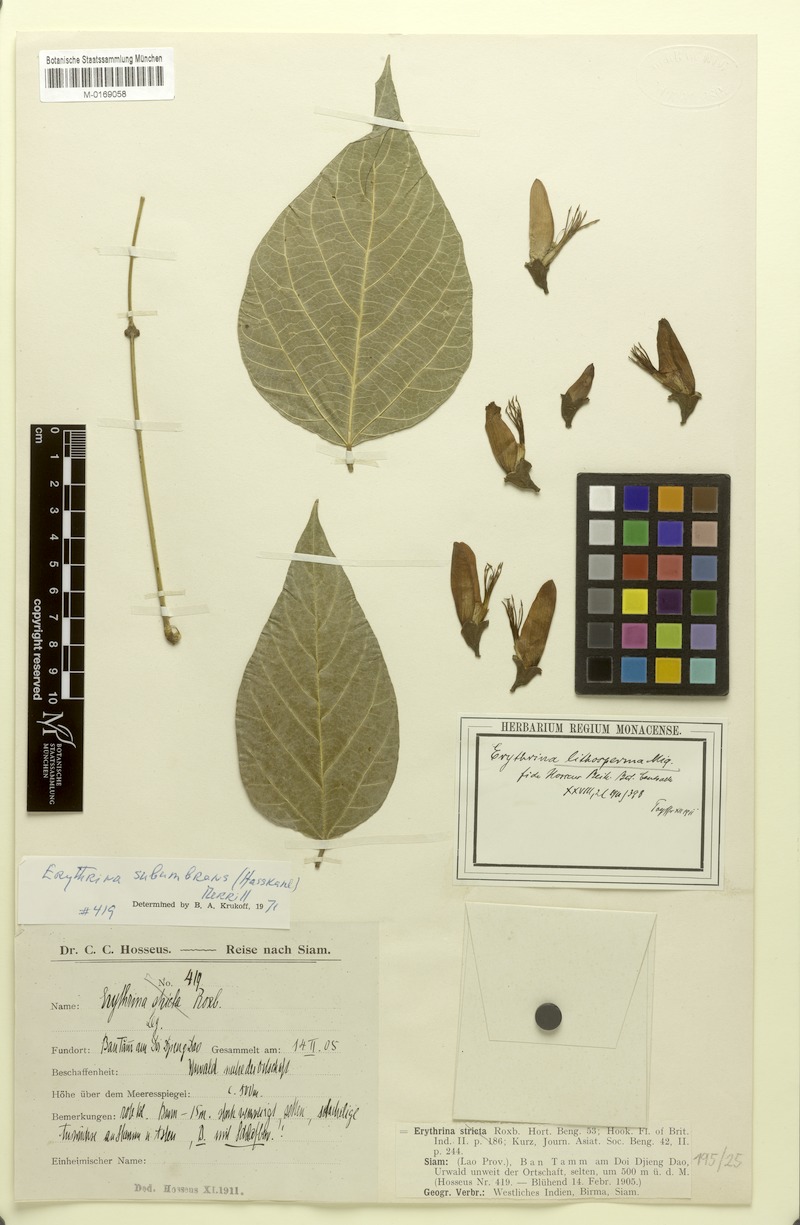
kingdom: Plantae
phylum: Tracheophyta
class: Magnoliopsida
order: Fabales
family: Fabaceae
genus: Erythrina
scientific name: Erythrina subumbrans
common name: December-tree
